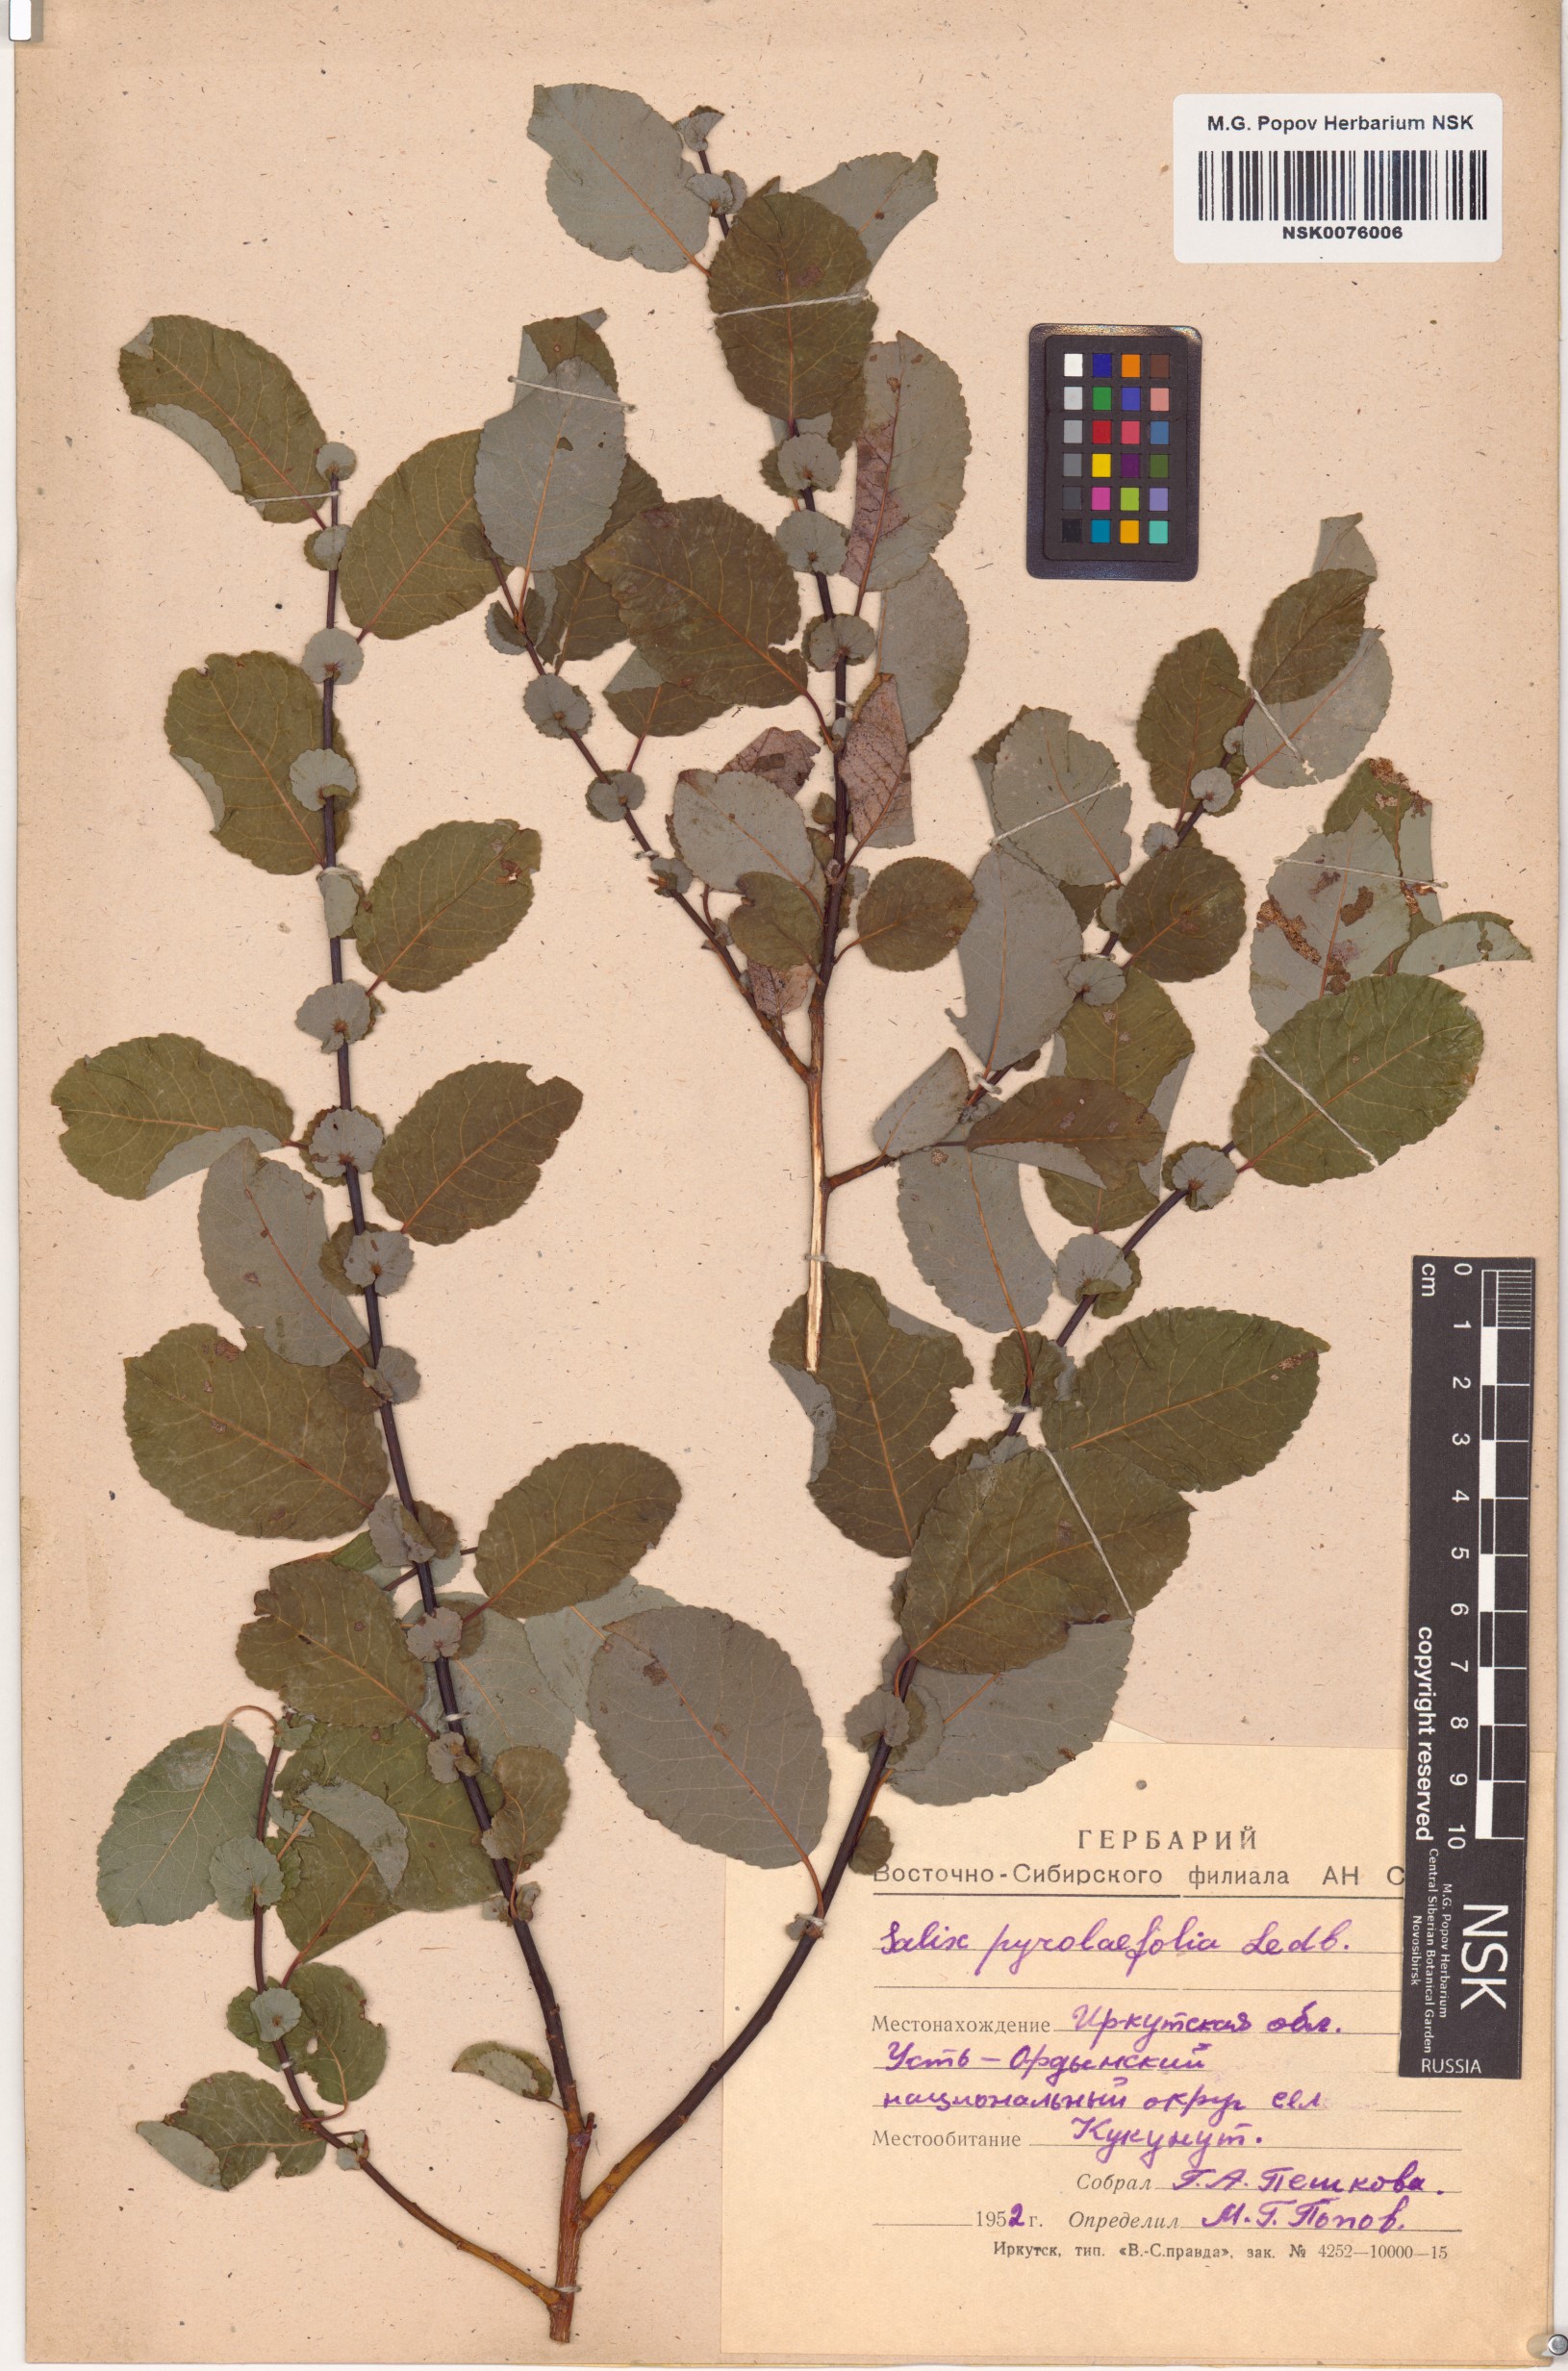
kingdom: Plantae
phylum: Tracheophyta
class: Magnoliopsida
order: Malpighiales
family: Salicaceae
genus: Salix
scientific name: Salix pyrolifolia
